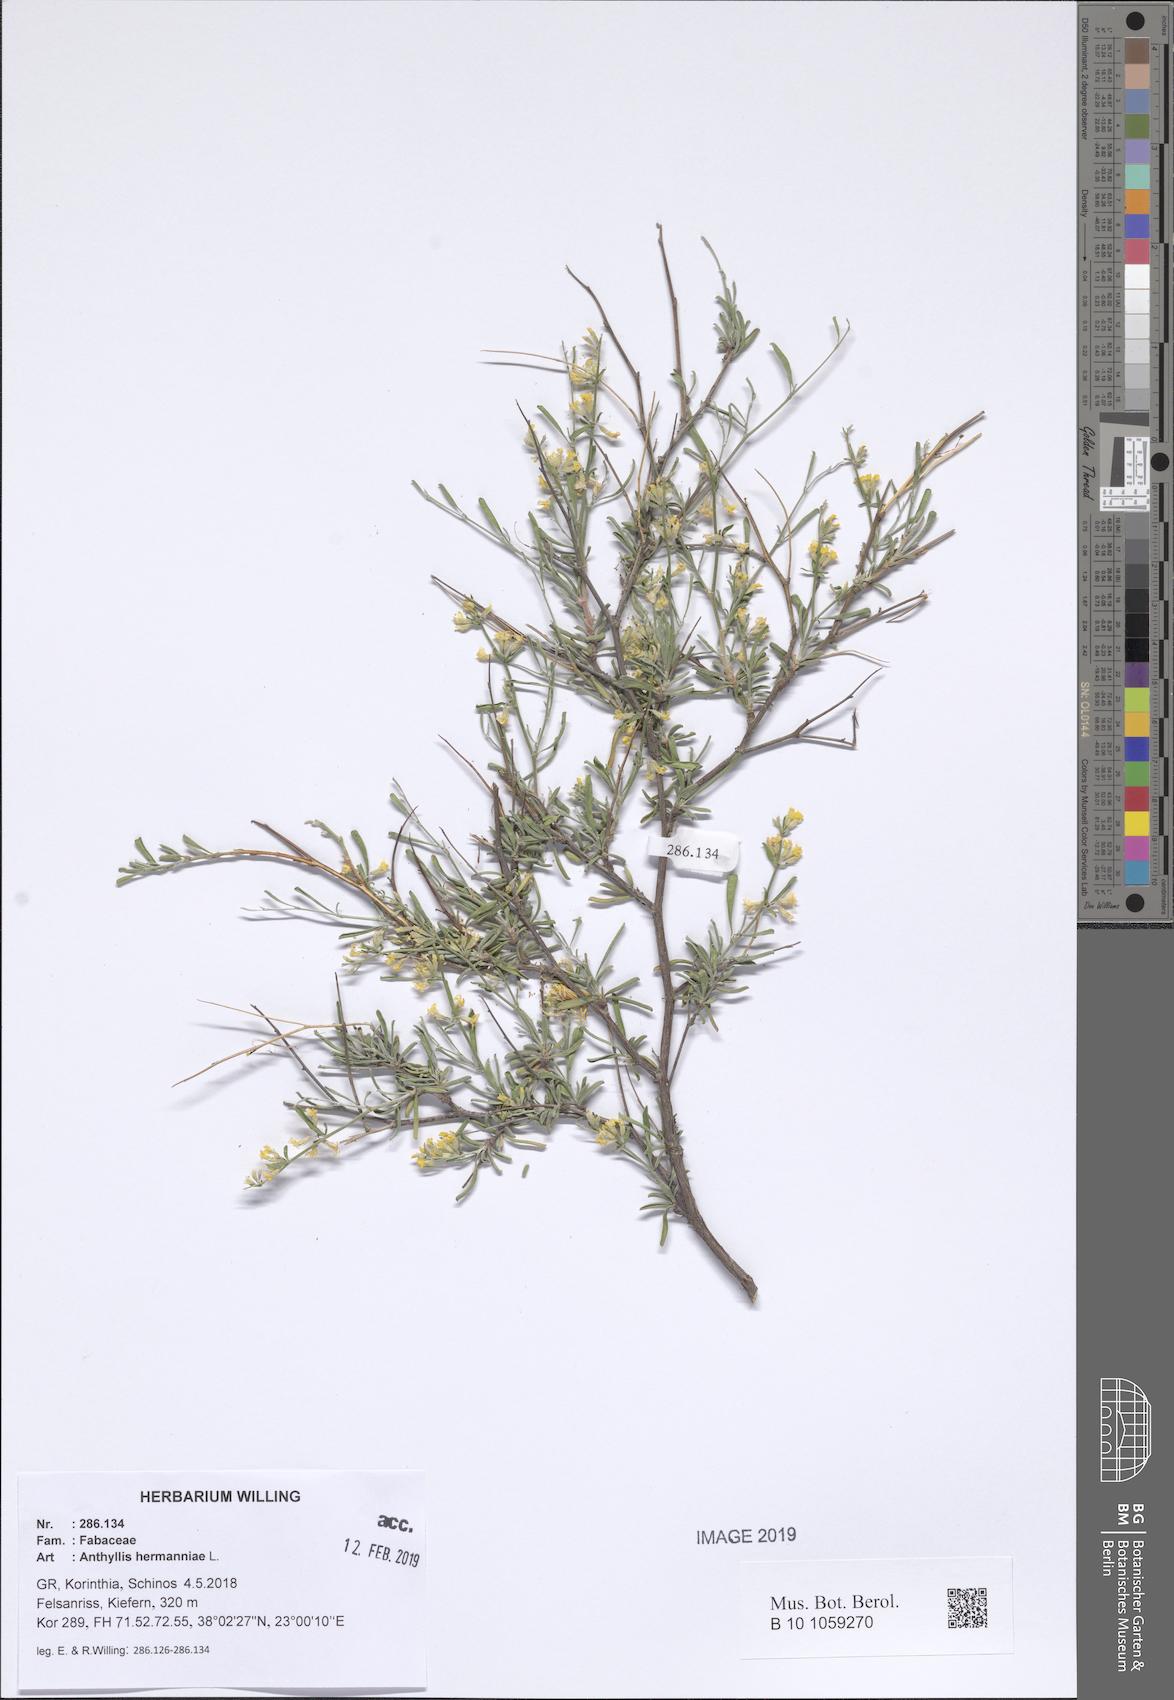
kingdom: Plantae
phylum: Tracheophyta
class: Magnoliopsida
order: Fabales
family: Fabaceae
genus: Anthyllis
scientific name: Anthyllis hermanniae
